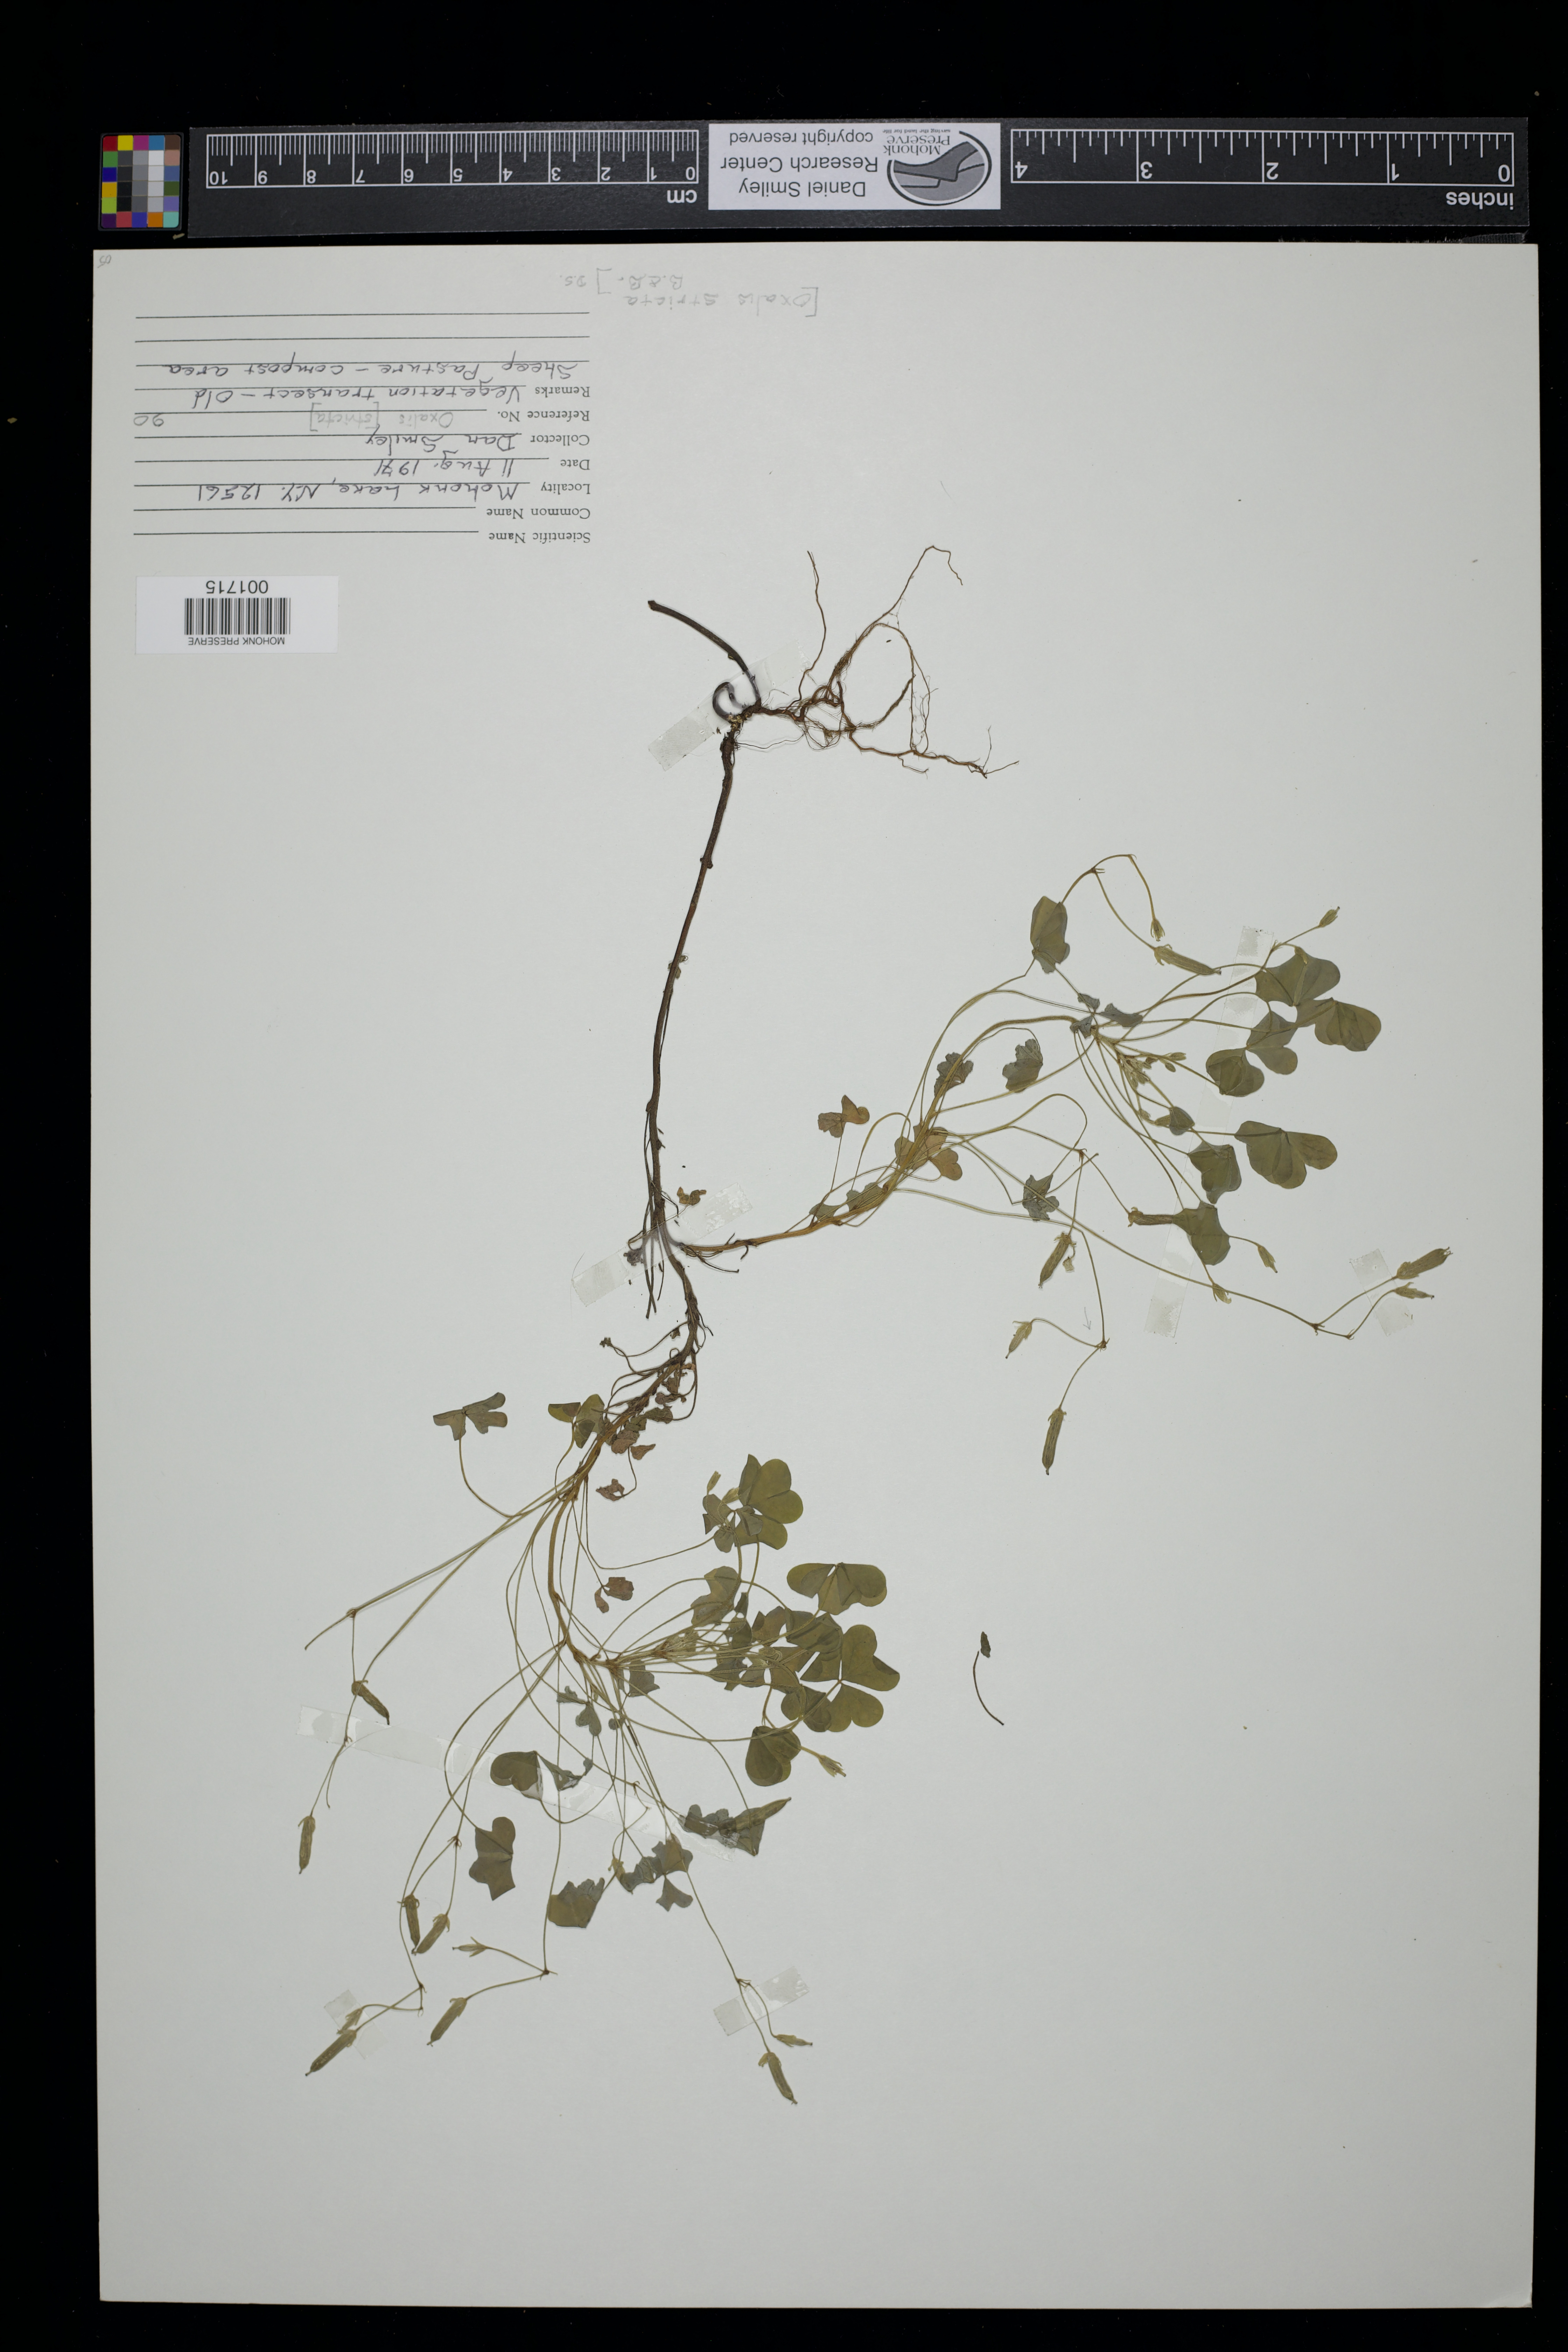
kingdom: Plantae
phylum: Tracheophyta
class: Magnoliopsida
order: Oxalidales
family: Oxalidaceae
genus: Oxalis
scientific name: Oxalis stricta
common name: Upright yellow-sorrel
